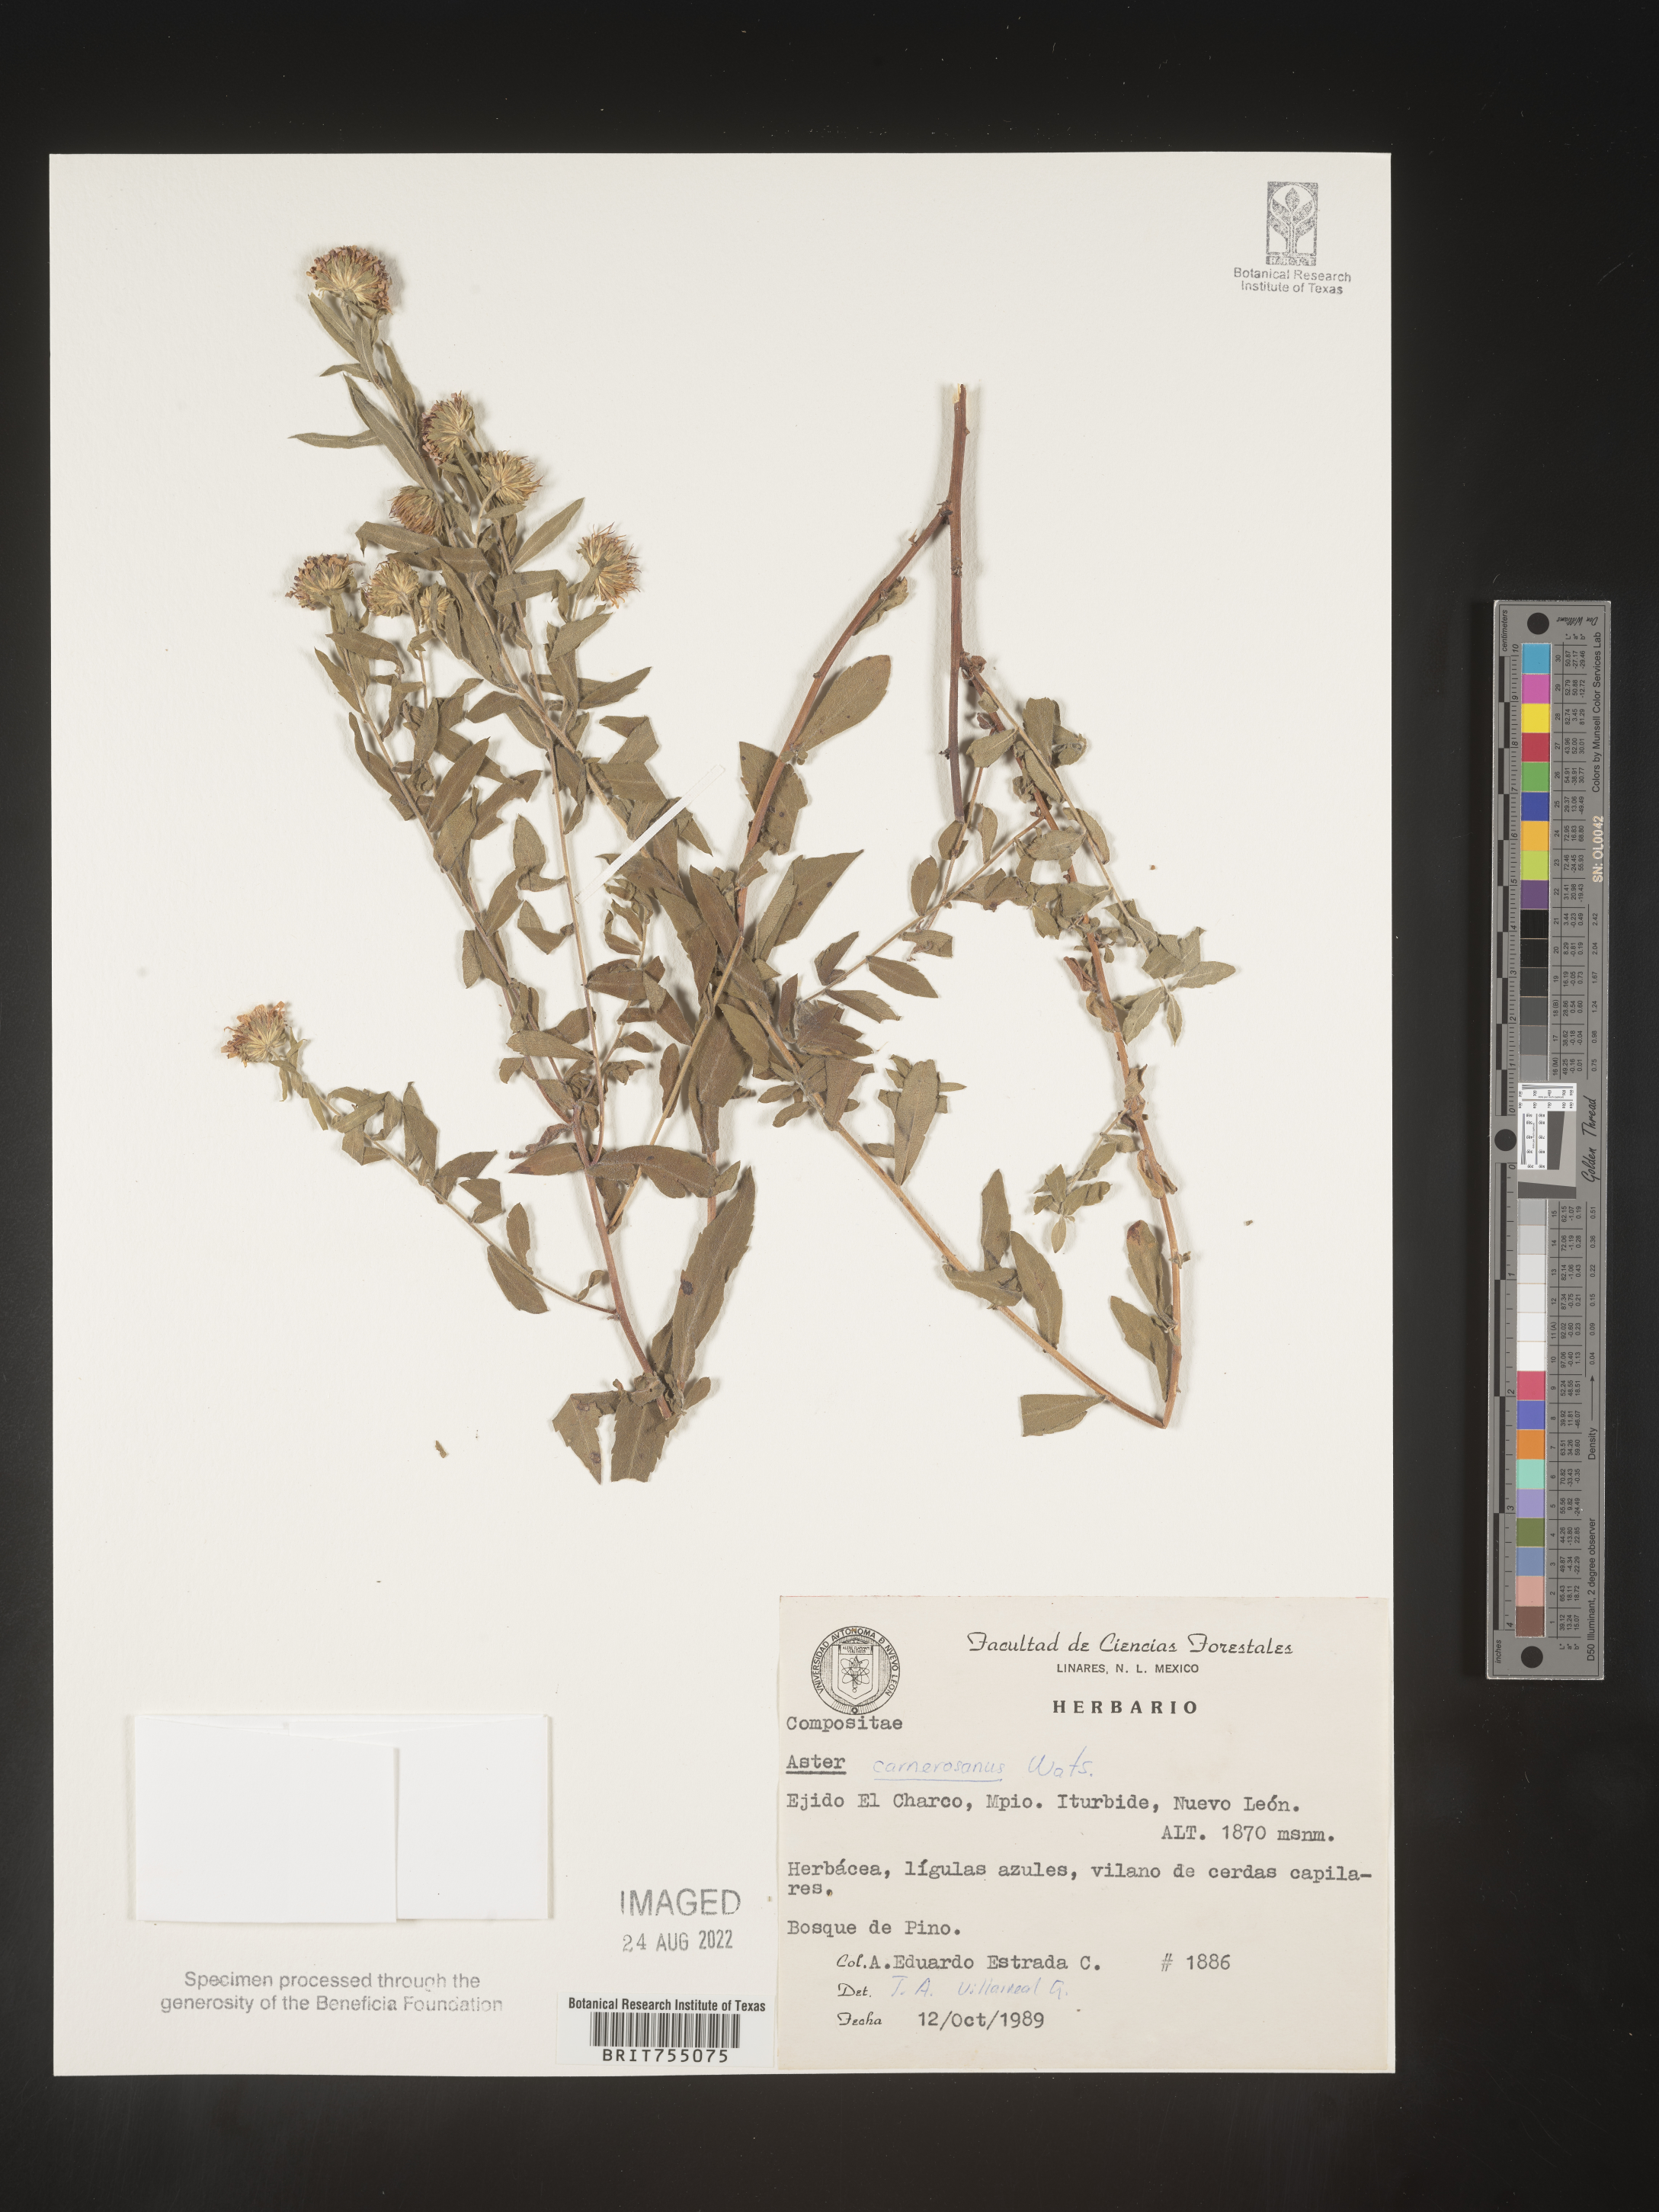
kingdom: Plantae
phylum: Tracheophyta
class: Magnoliopsida
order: Asterales
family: Asteraceae
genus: Symphyotrichum
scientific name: Symphyotrichum carnerosanum
